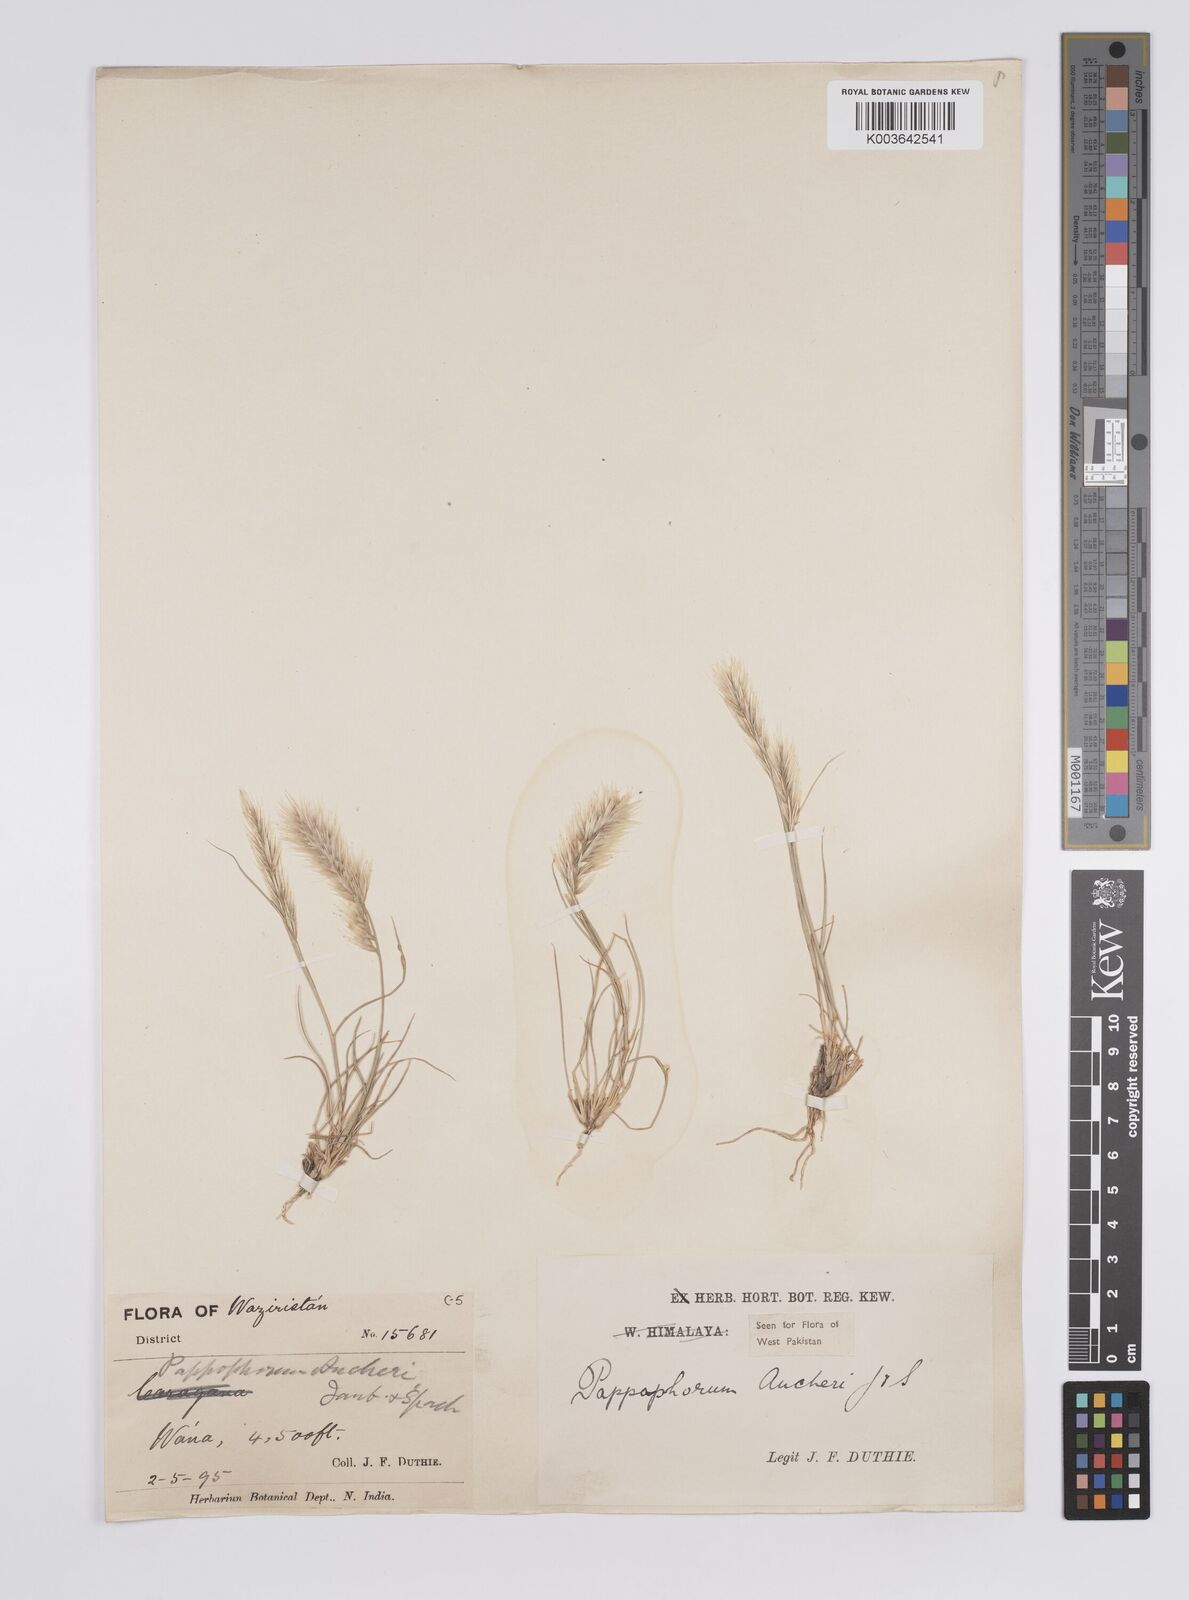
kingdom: Plantae
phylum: Tracheophyta
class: Liliopsida
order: Poales
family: Poaceae
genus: Enneapogon
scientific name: Enneapogon persicus
